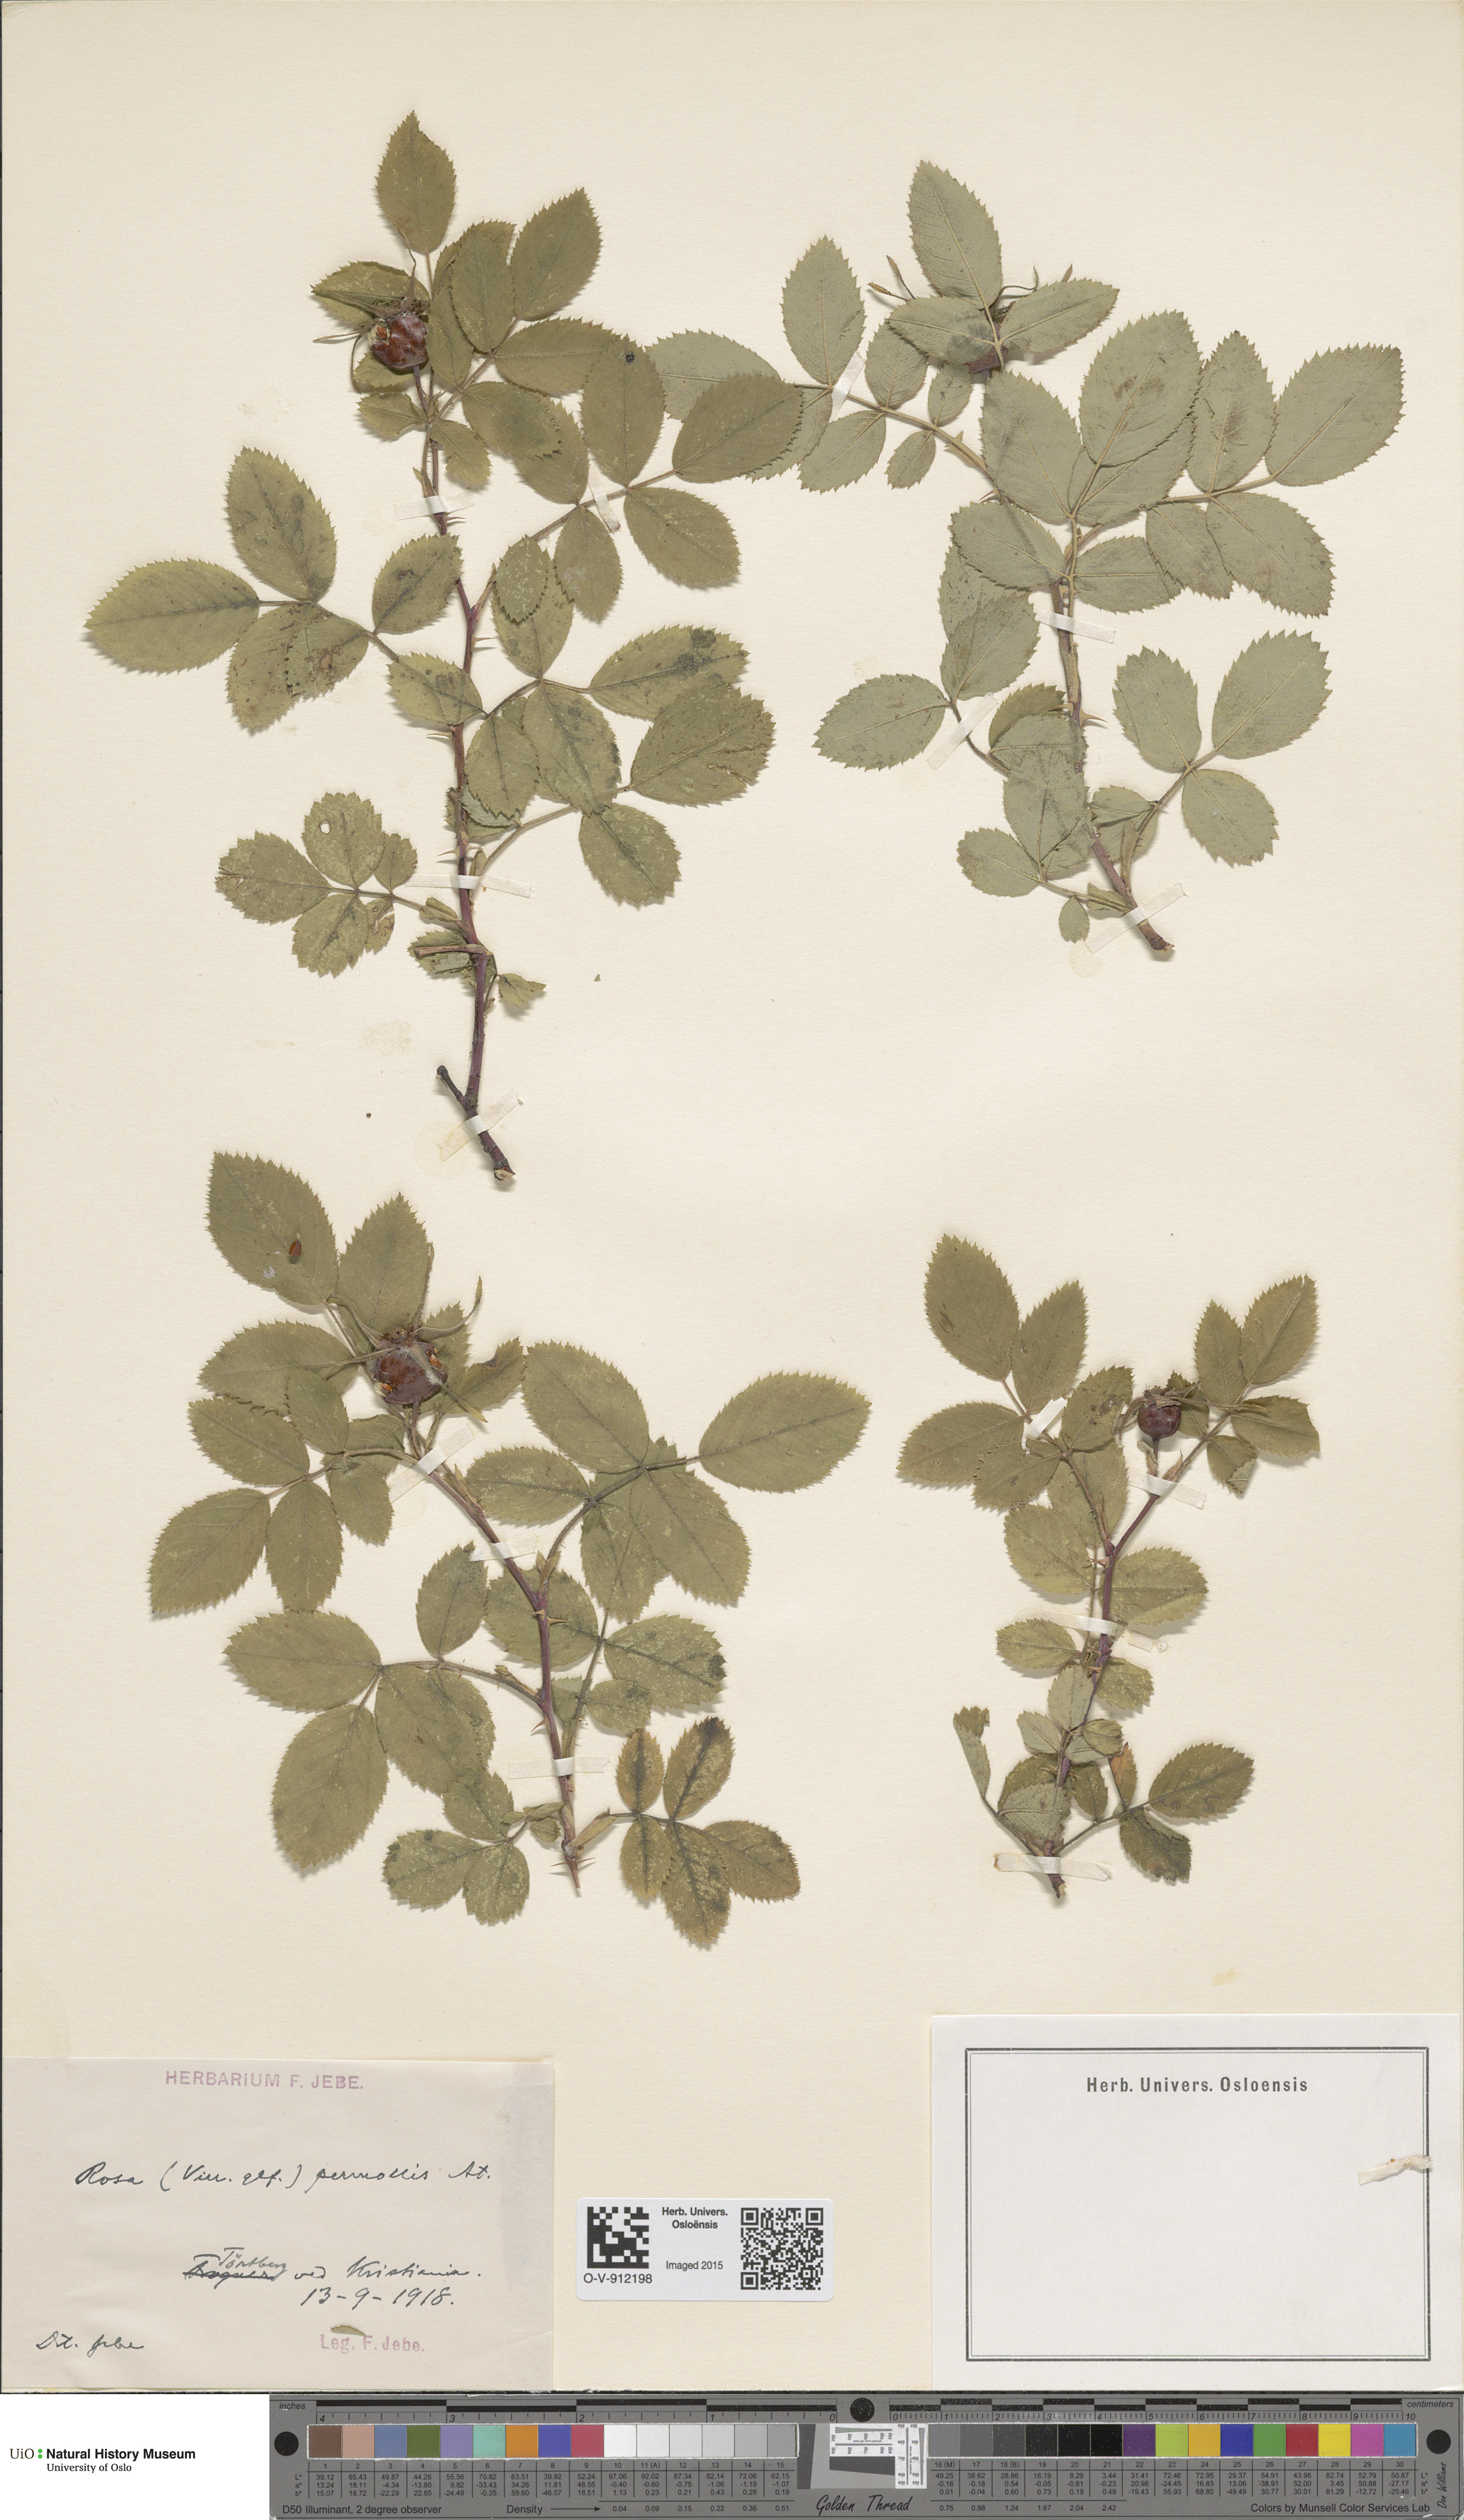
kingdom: Plantae
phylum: Tracheophyta
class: Magnoliopsida
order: Rosales
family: Rosaceae
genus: Rosa
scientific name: Rosa mollis
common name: Rose
